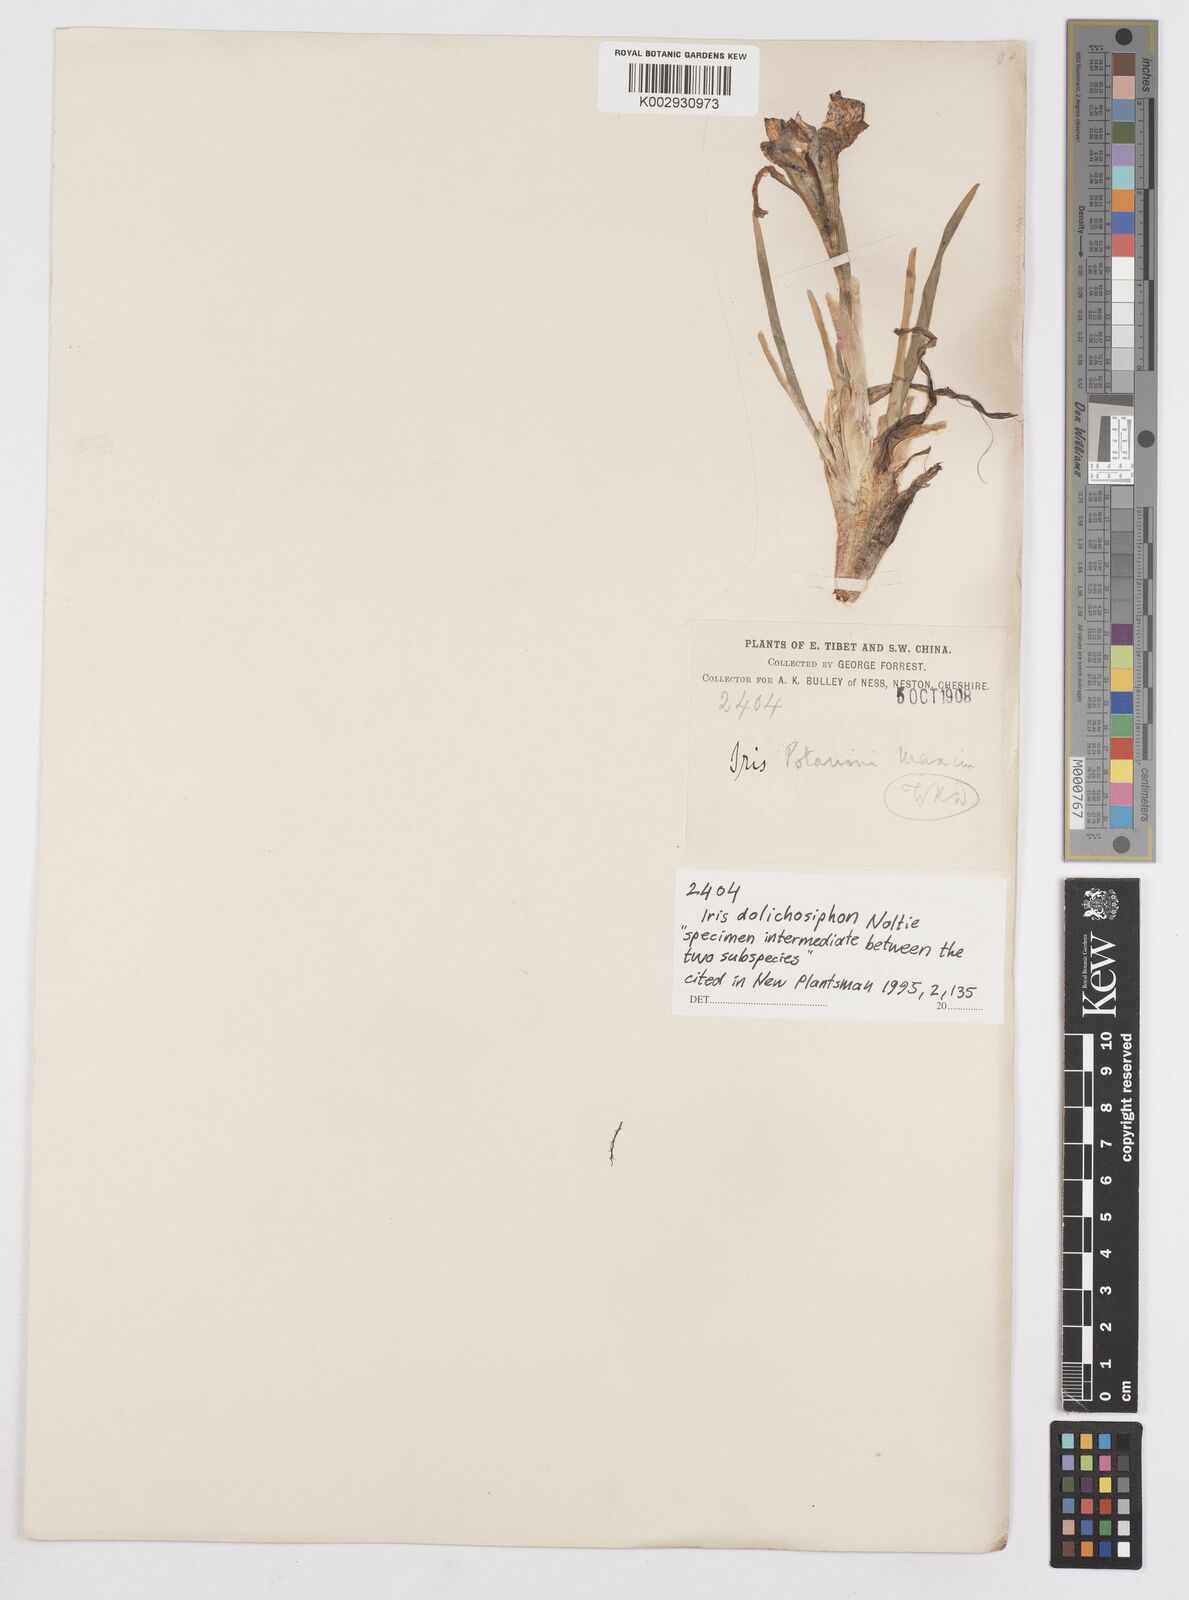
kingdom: Plantae
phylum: Tracheophyta
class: Liliopsida
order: Asparagales
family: Iridaceae
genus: Iris
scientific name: Iris dolichosiphon
